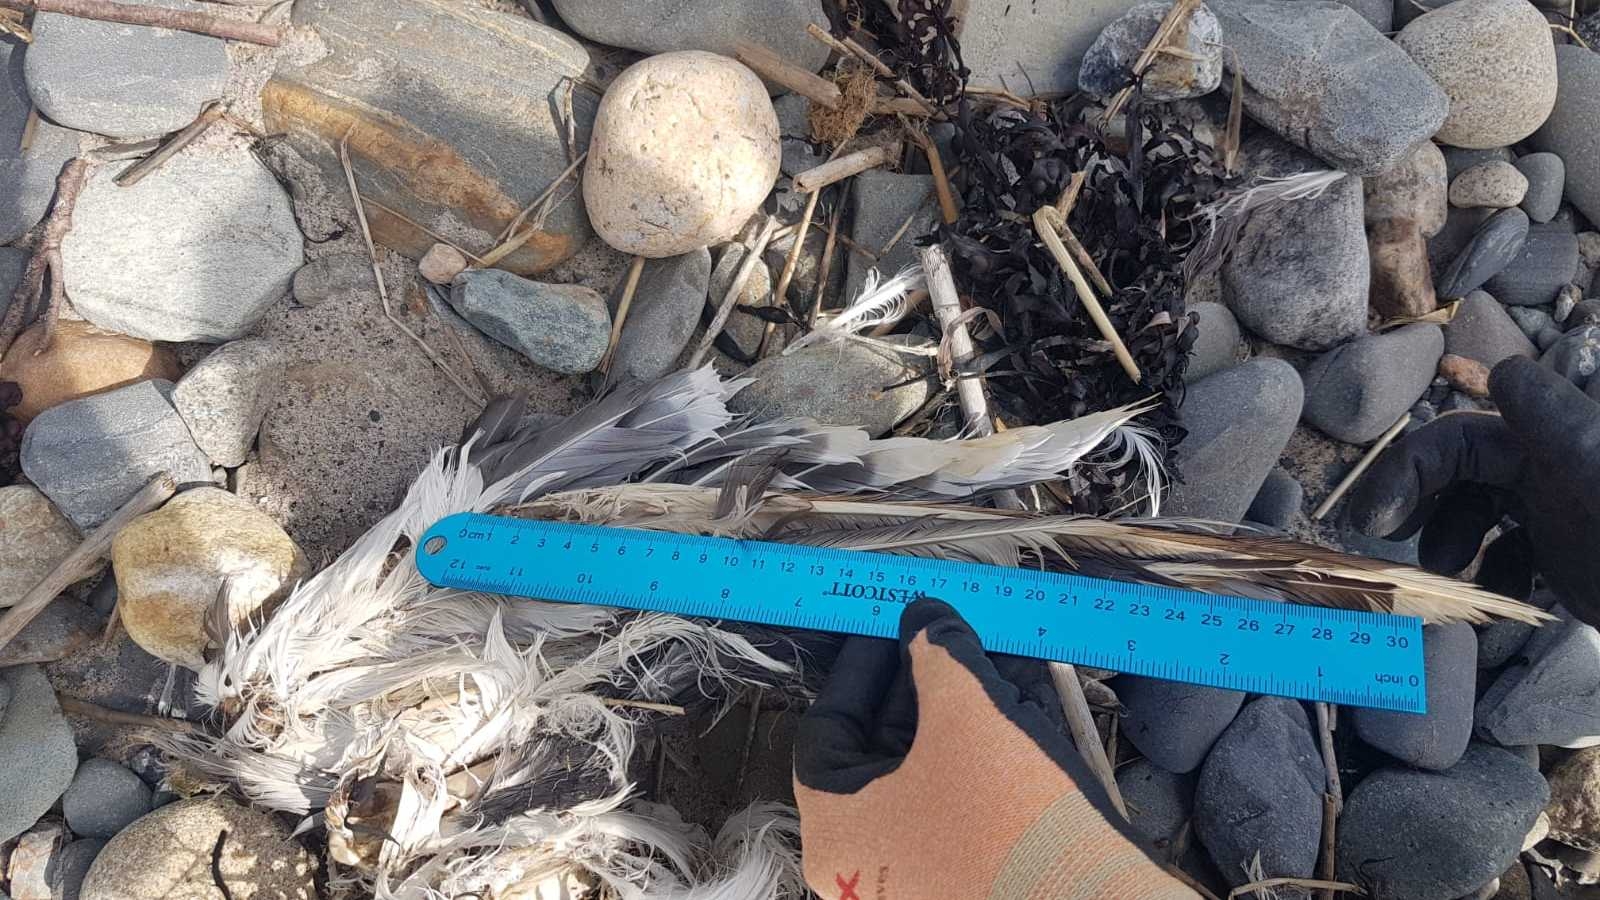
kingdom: Animalia
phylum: Chordata
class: Aves
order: Charadriiformes
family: Laridae
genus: Larus
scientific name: Larus marinus
